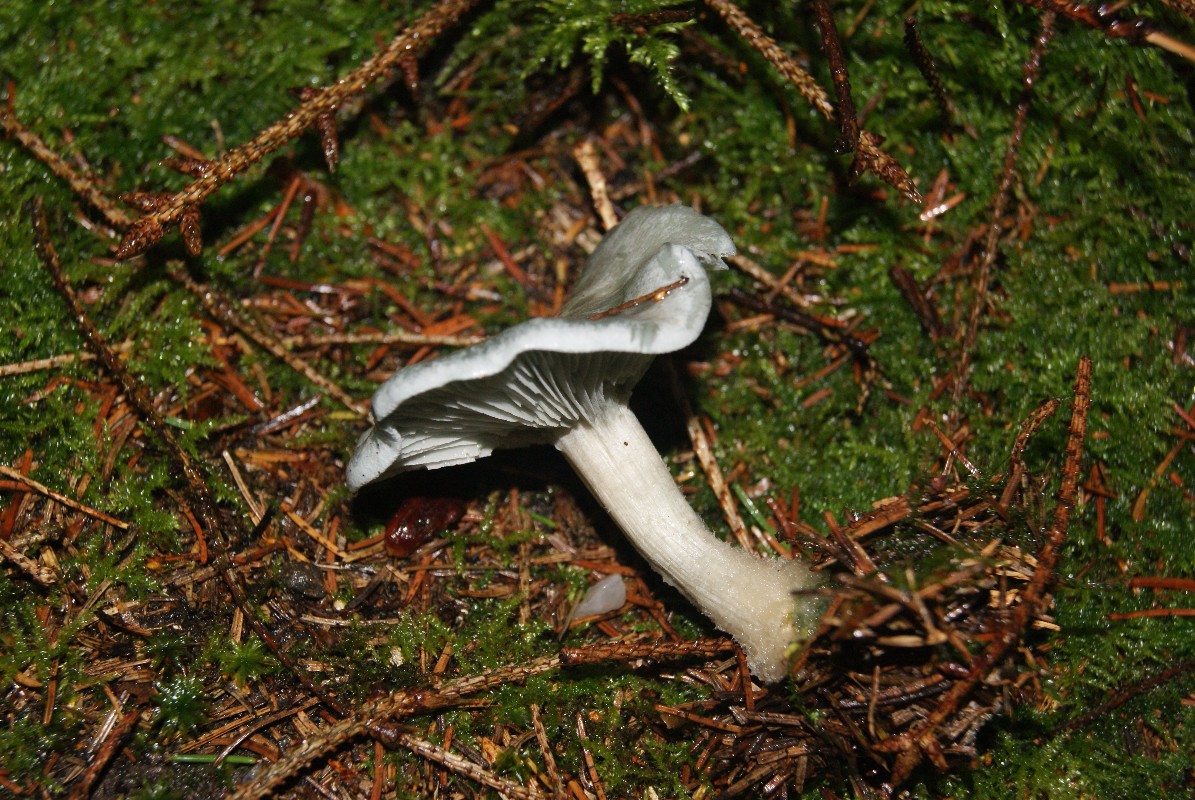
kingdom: Fungi
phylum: Basidiomycota
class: Agaricomycetes
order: Agaricales
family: Tricholomataceae
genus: Clitocybe
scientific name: Clitocybe odora
